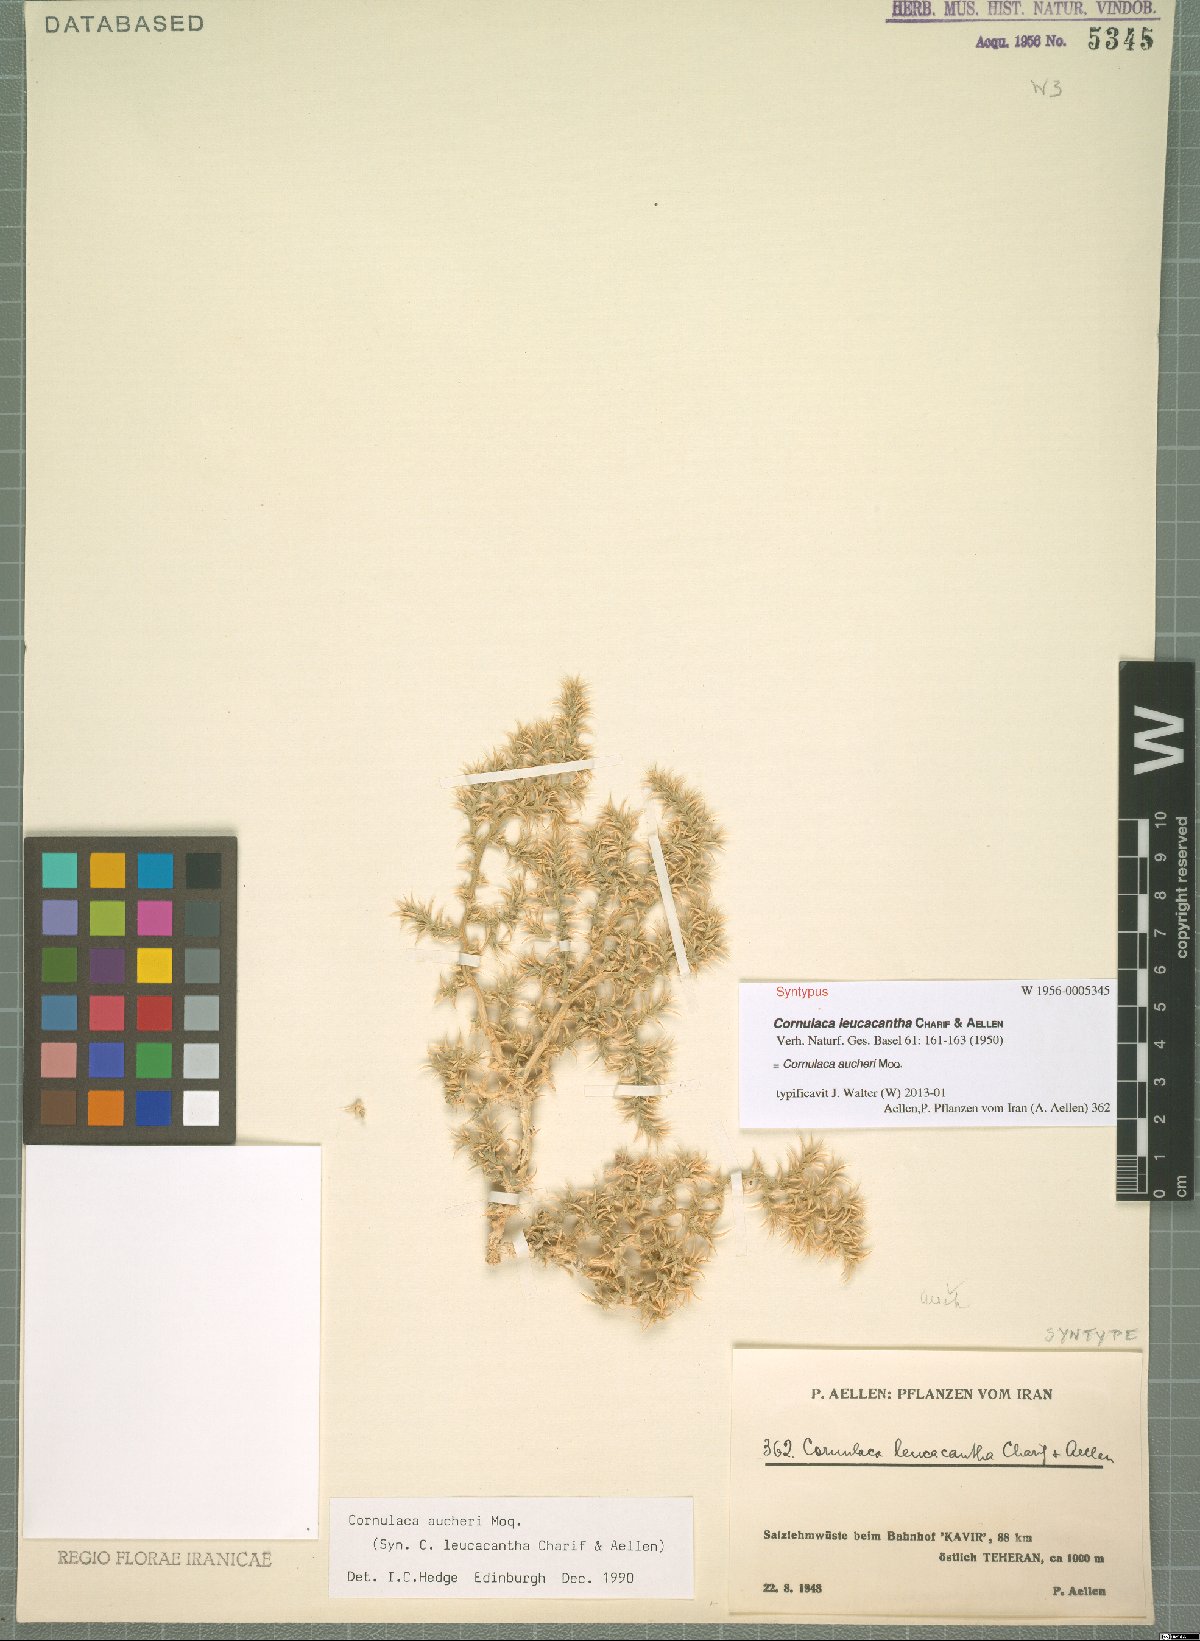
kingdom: Plantae
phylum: Tracheophyta
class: Magnoliopsida
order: Caryophyllales
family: Amaranthaceae
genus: Cornulaca
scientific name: Cornulaca aucheri
